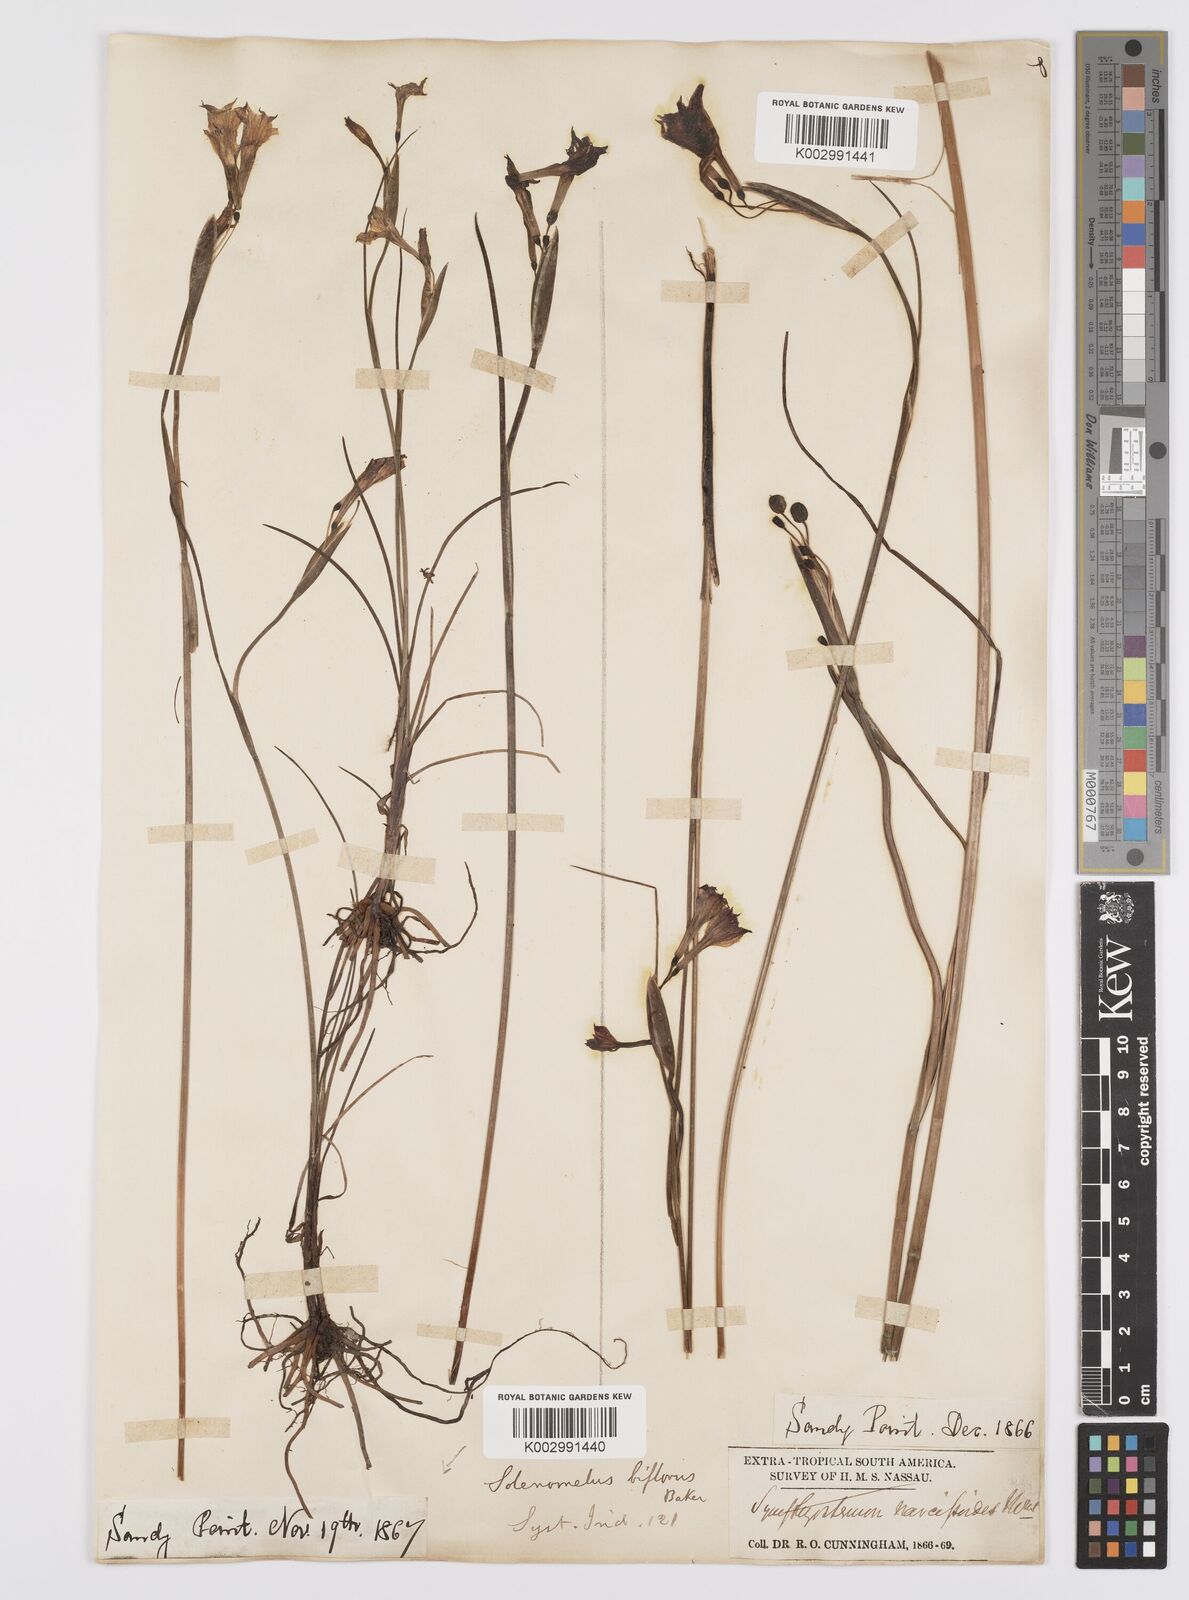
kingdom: Plantae
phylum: Tracheophyta
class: Liliopsida
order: Asparagales
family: Iridaceae
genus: Olsynium
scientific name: Olsynium biflorum
